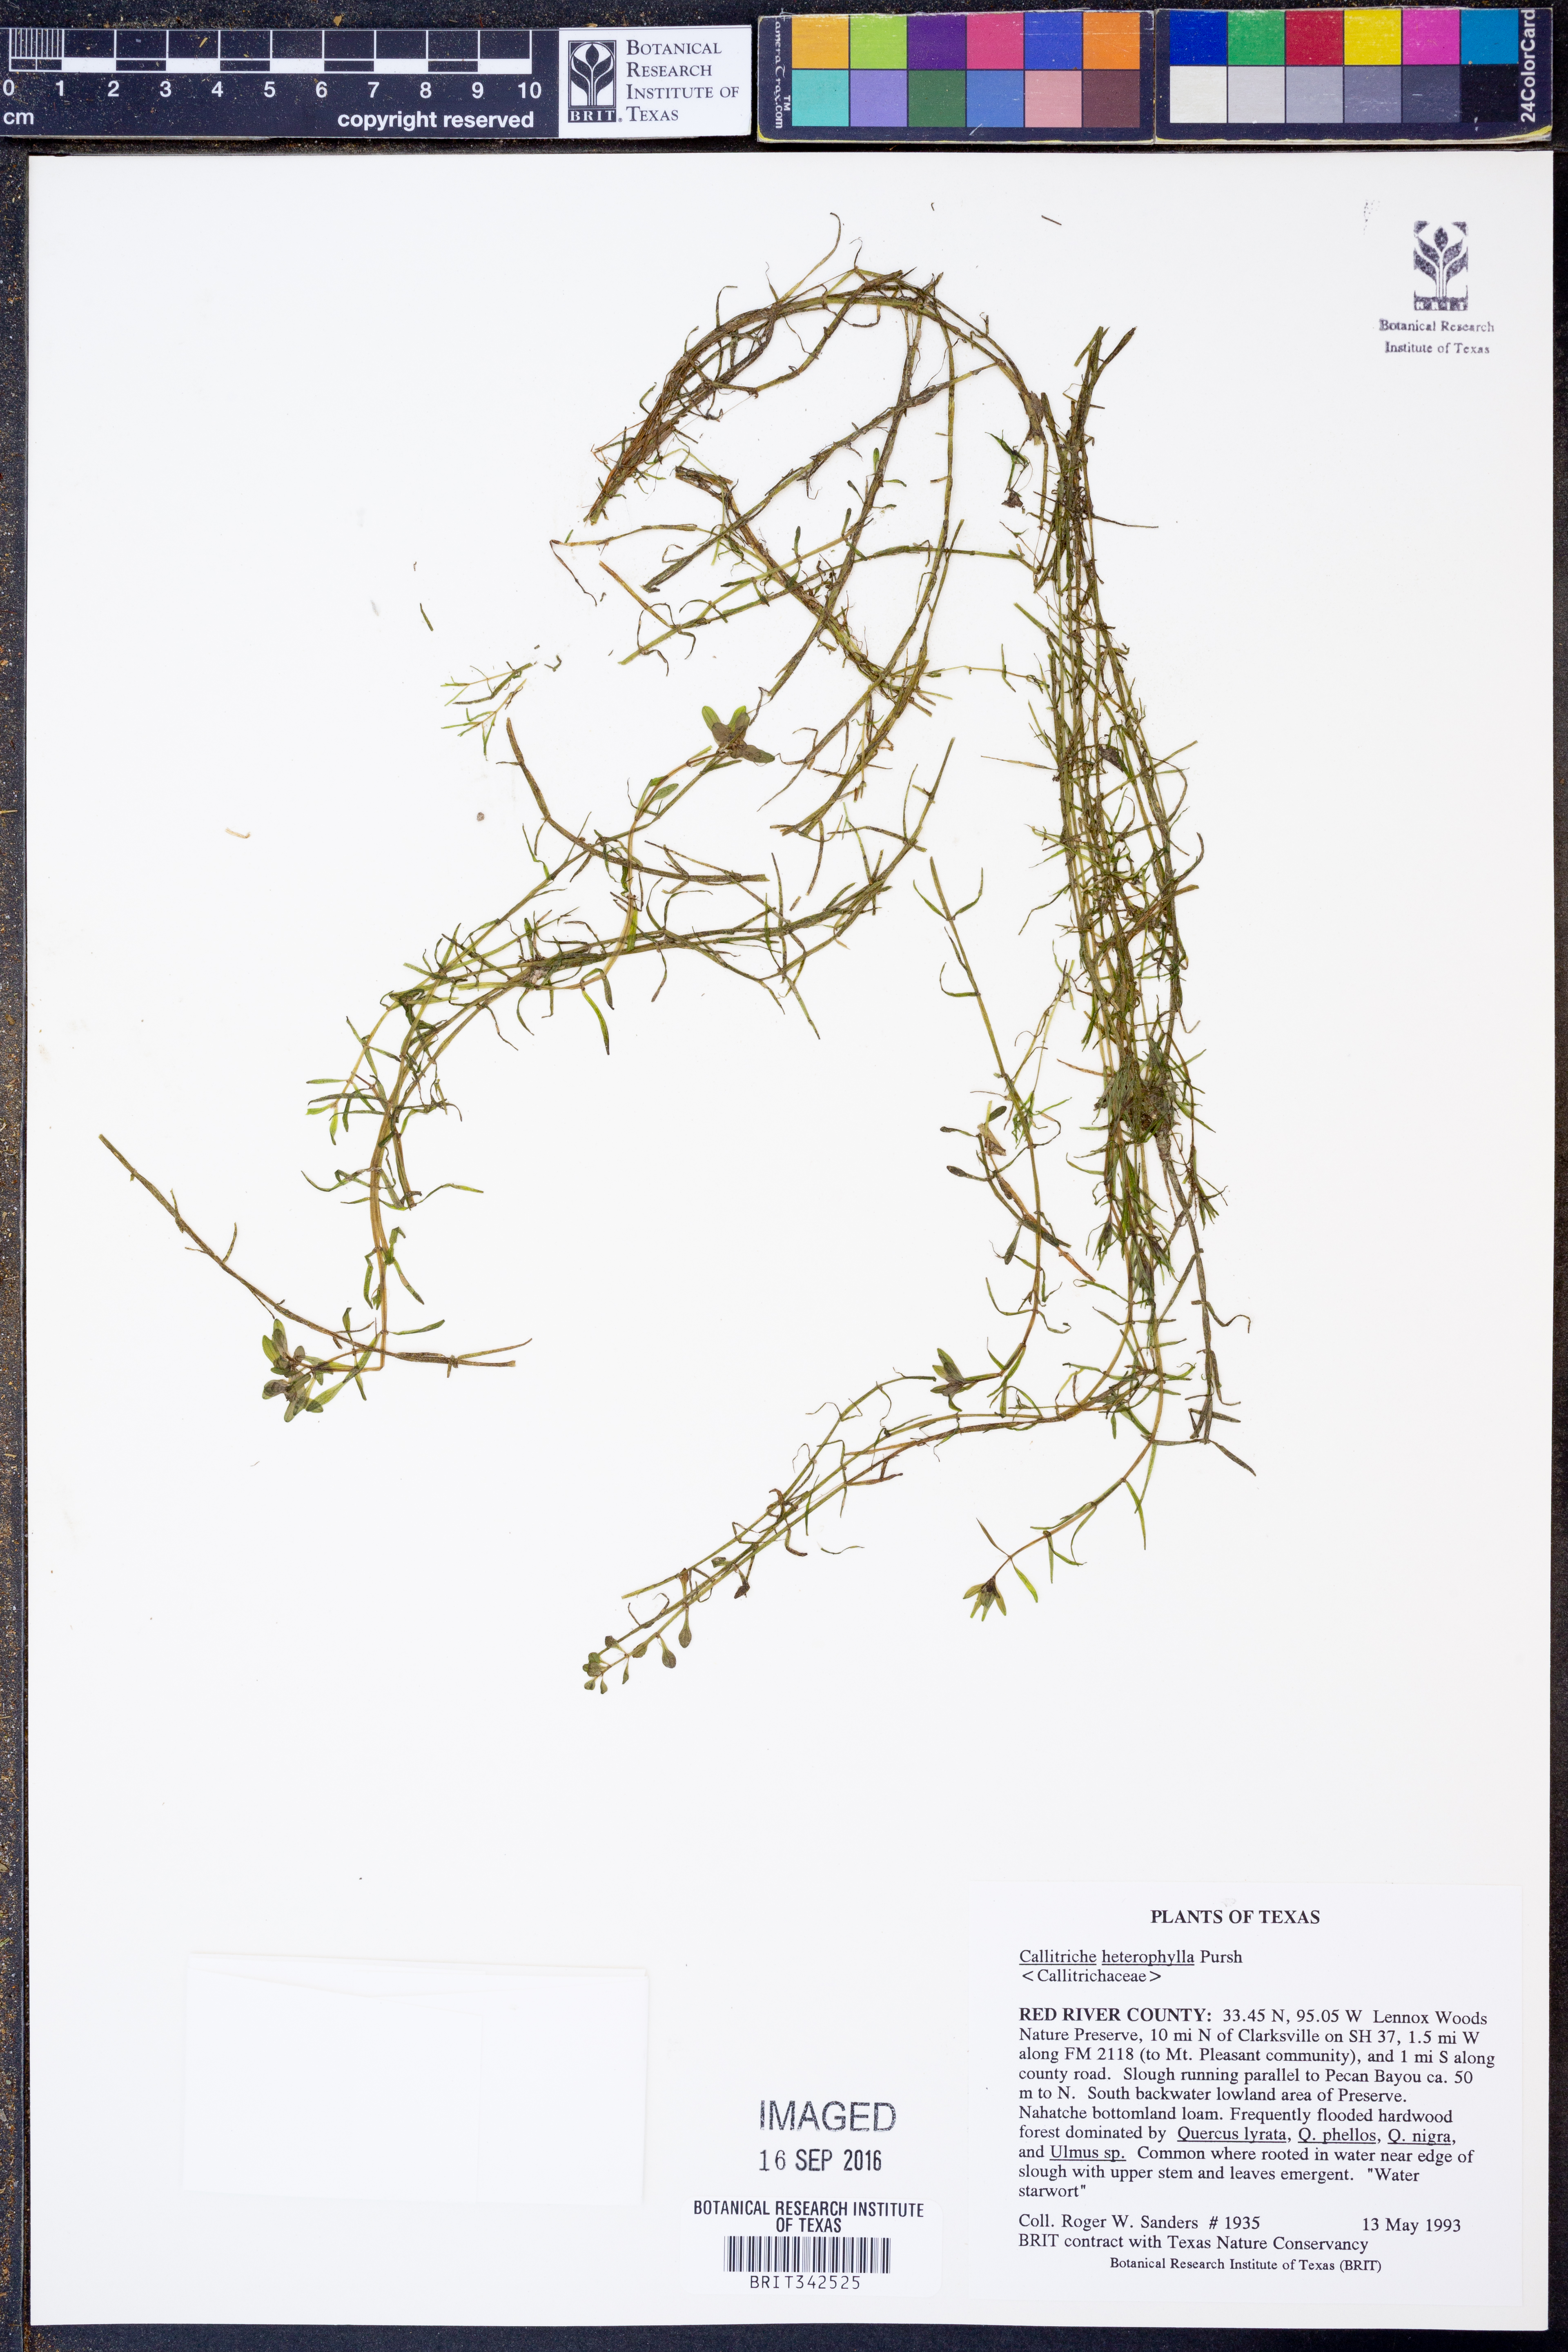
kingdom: Plantae
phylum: Tracheophyta
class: Magnoliopsida
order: Lamiales
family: Plantaginaceae
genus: Callitriche
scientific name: Callitriche heterophylla
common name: Two-headed water-starwort
